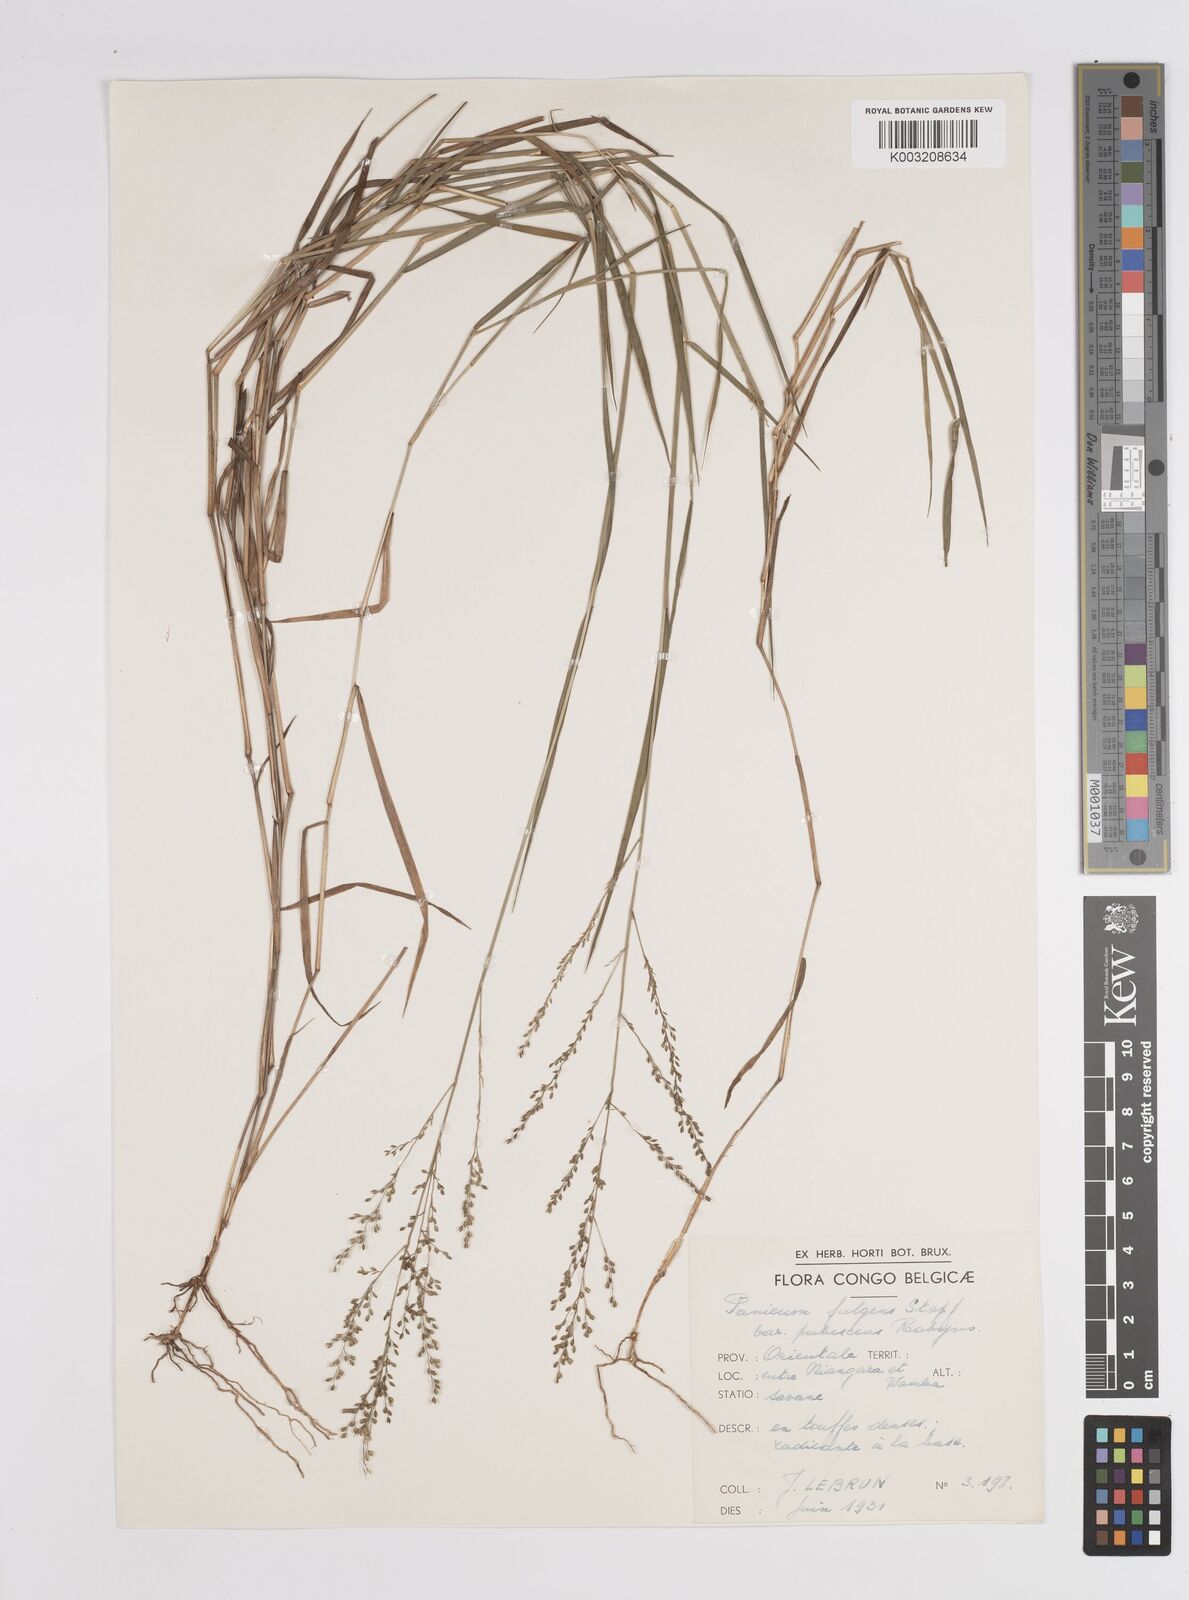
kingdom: Plantae
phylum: Tracheophyta
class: Liliopsida
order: Poales
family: Poaceae
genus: Trichanthecium
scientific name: Trichanthecium nervatum
